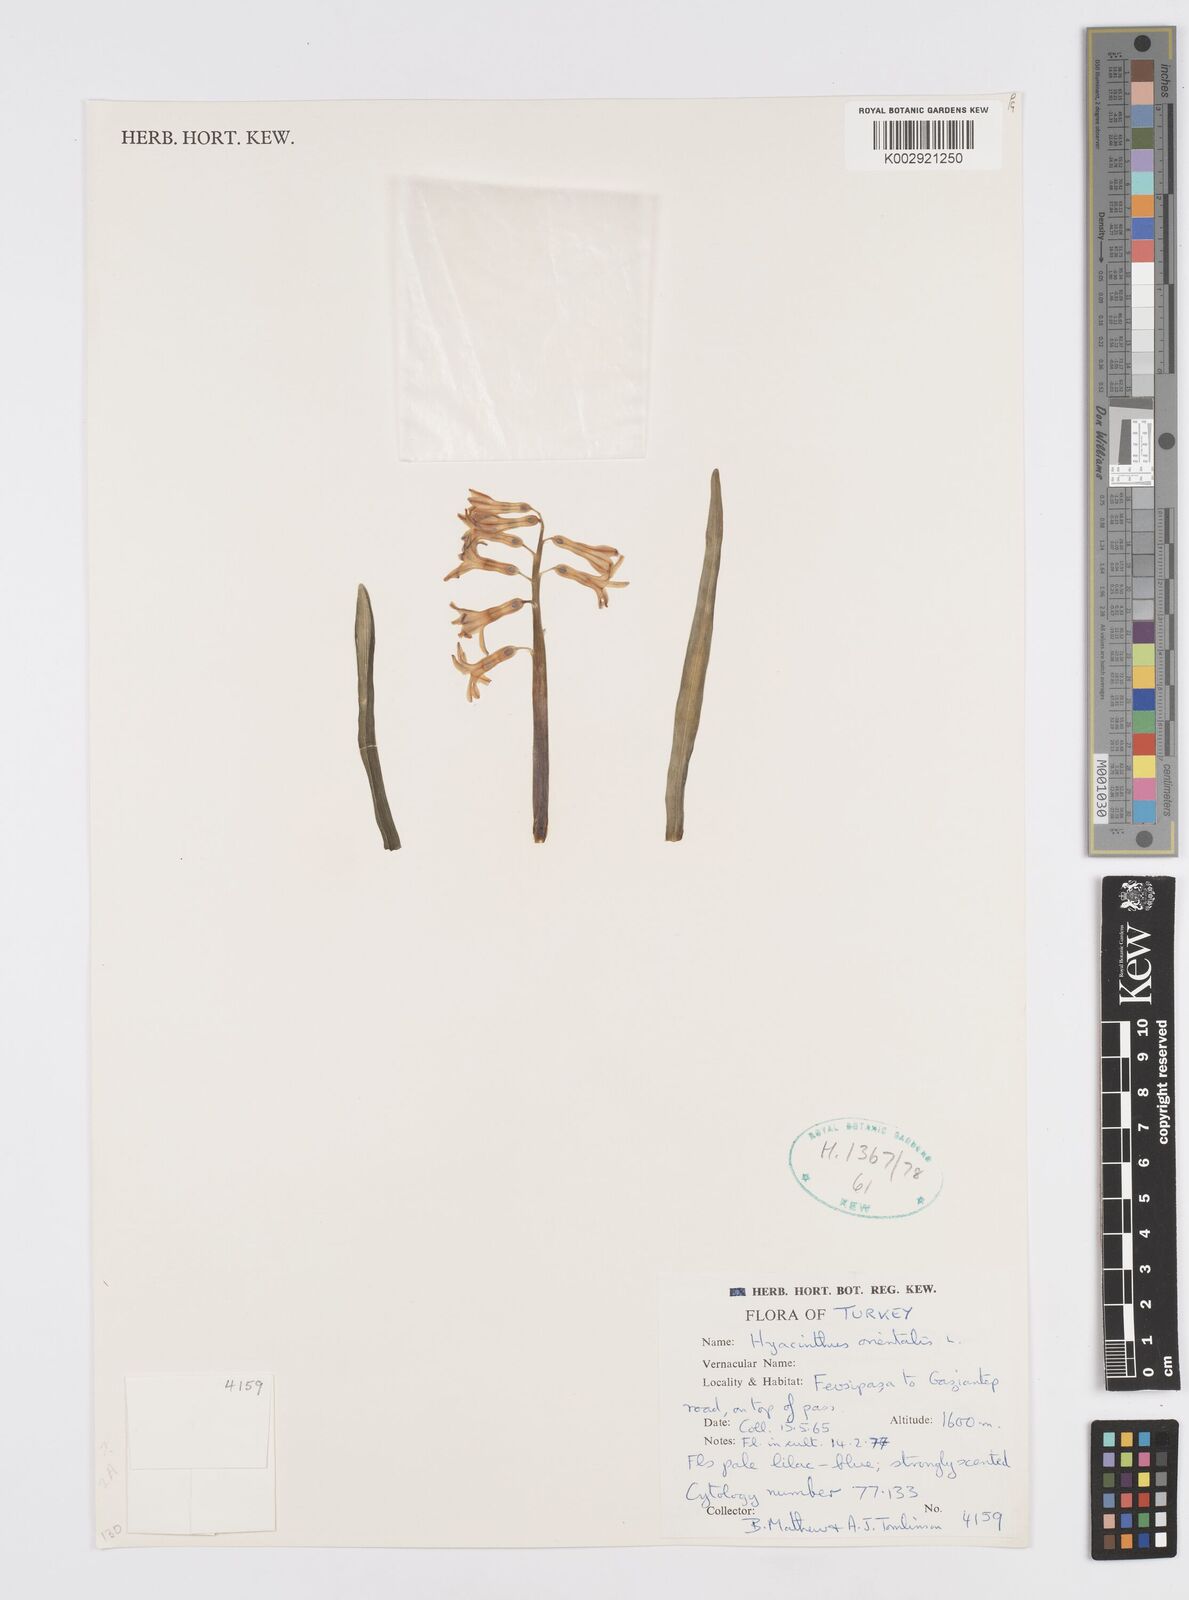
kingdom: Plantae
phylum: Tracheophyta
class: Liliopsida
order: Asparagales
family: Asparagaceae
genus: Hyacinthus
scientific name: Hyacinthus orientalis
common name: Hyacinth
